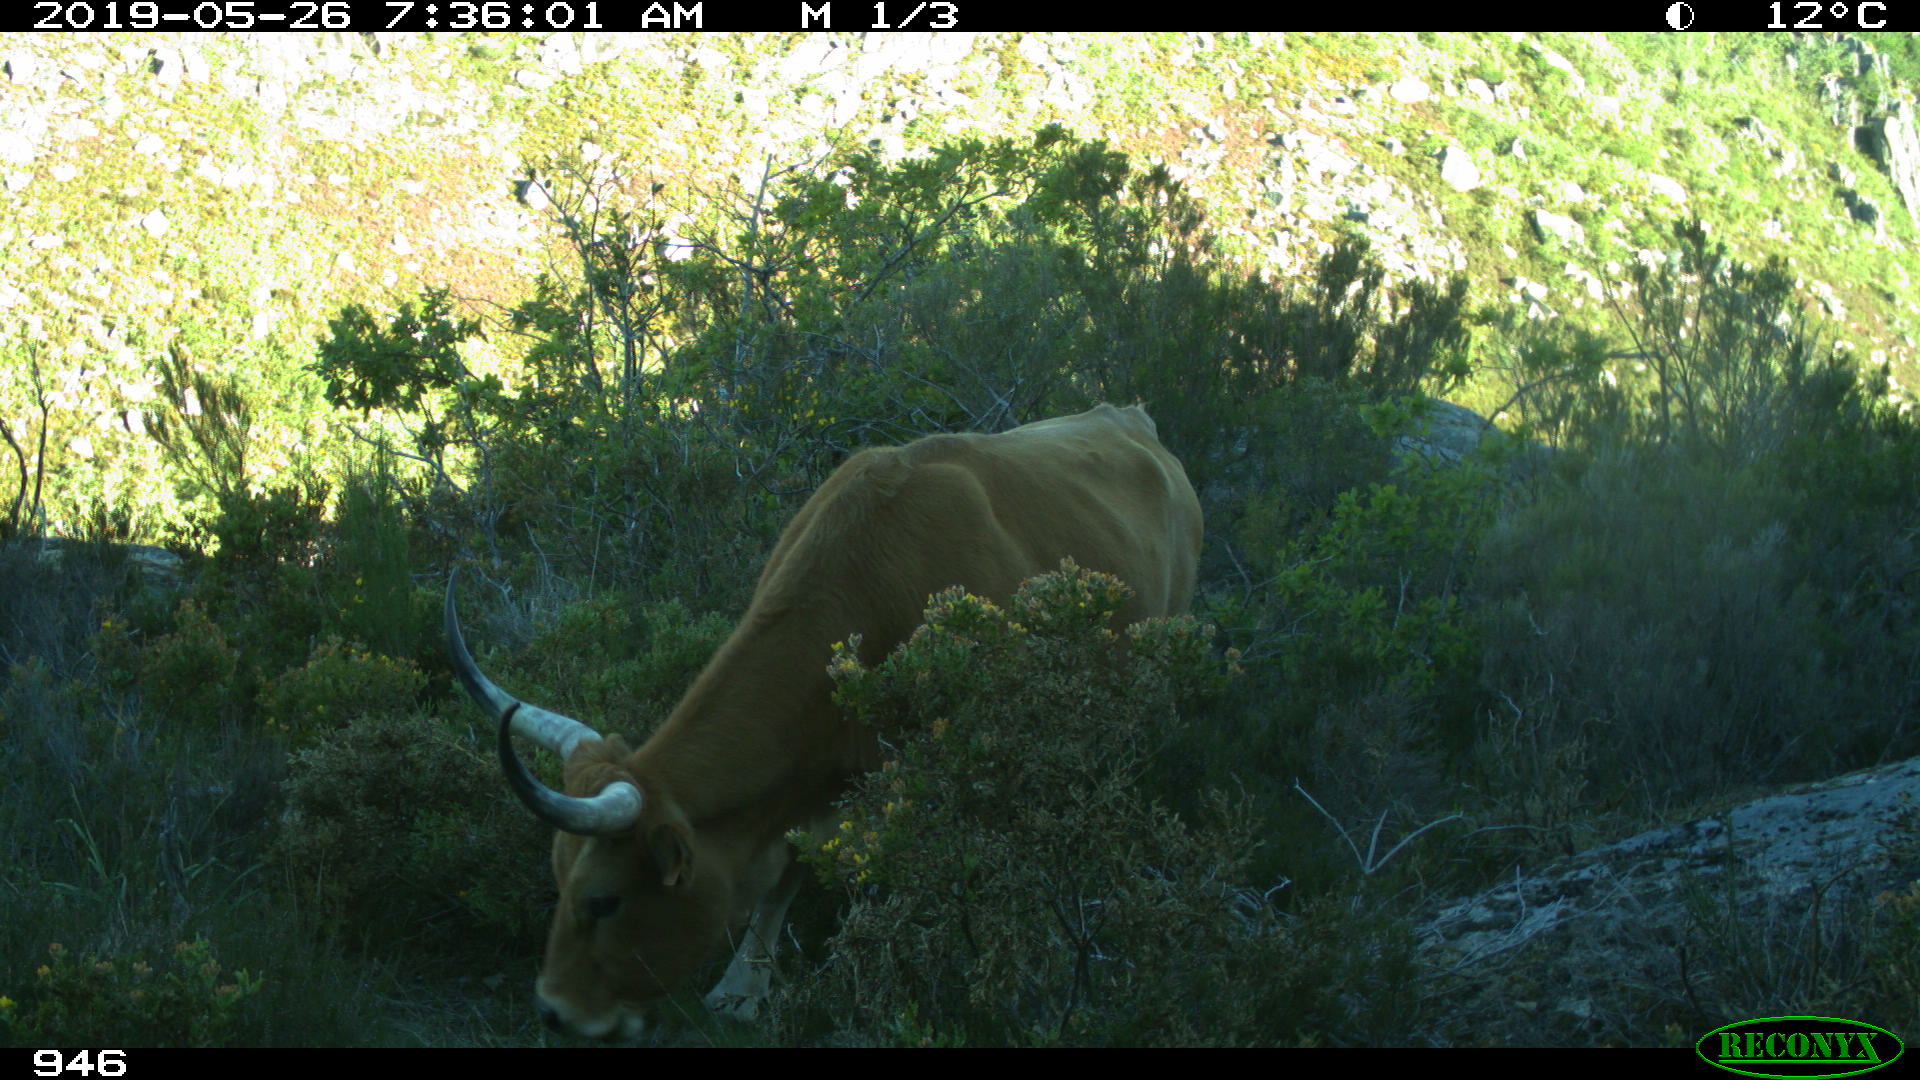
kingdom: Animalia
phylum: Chordata
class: Mammalia
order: Artiodactyla
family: Bovidae
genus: Bos
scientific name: Bos taurus
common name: Domesticated cattle
